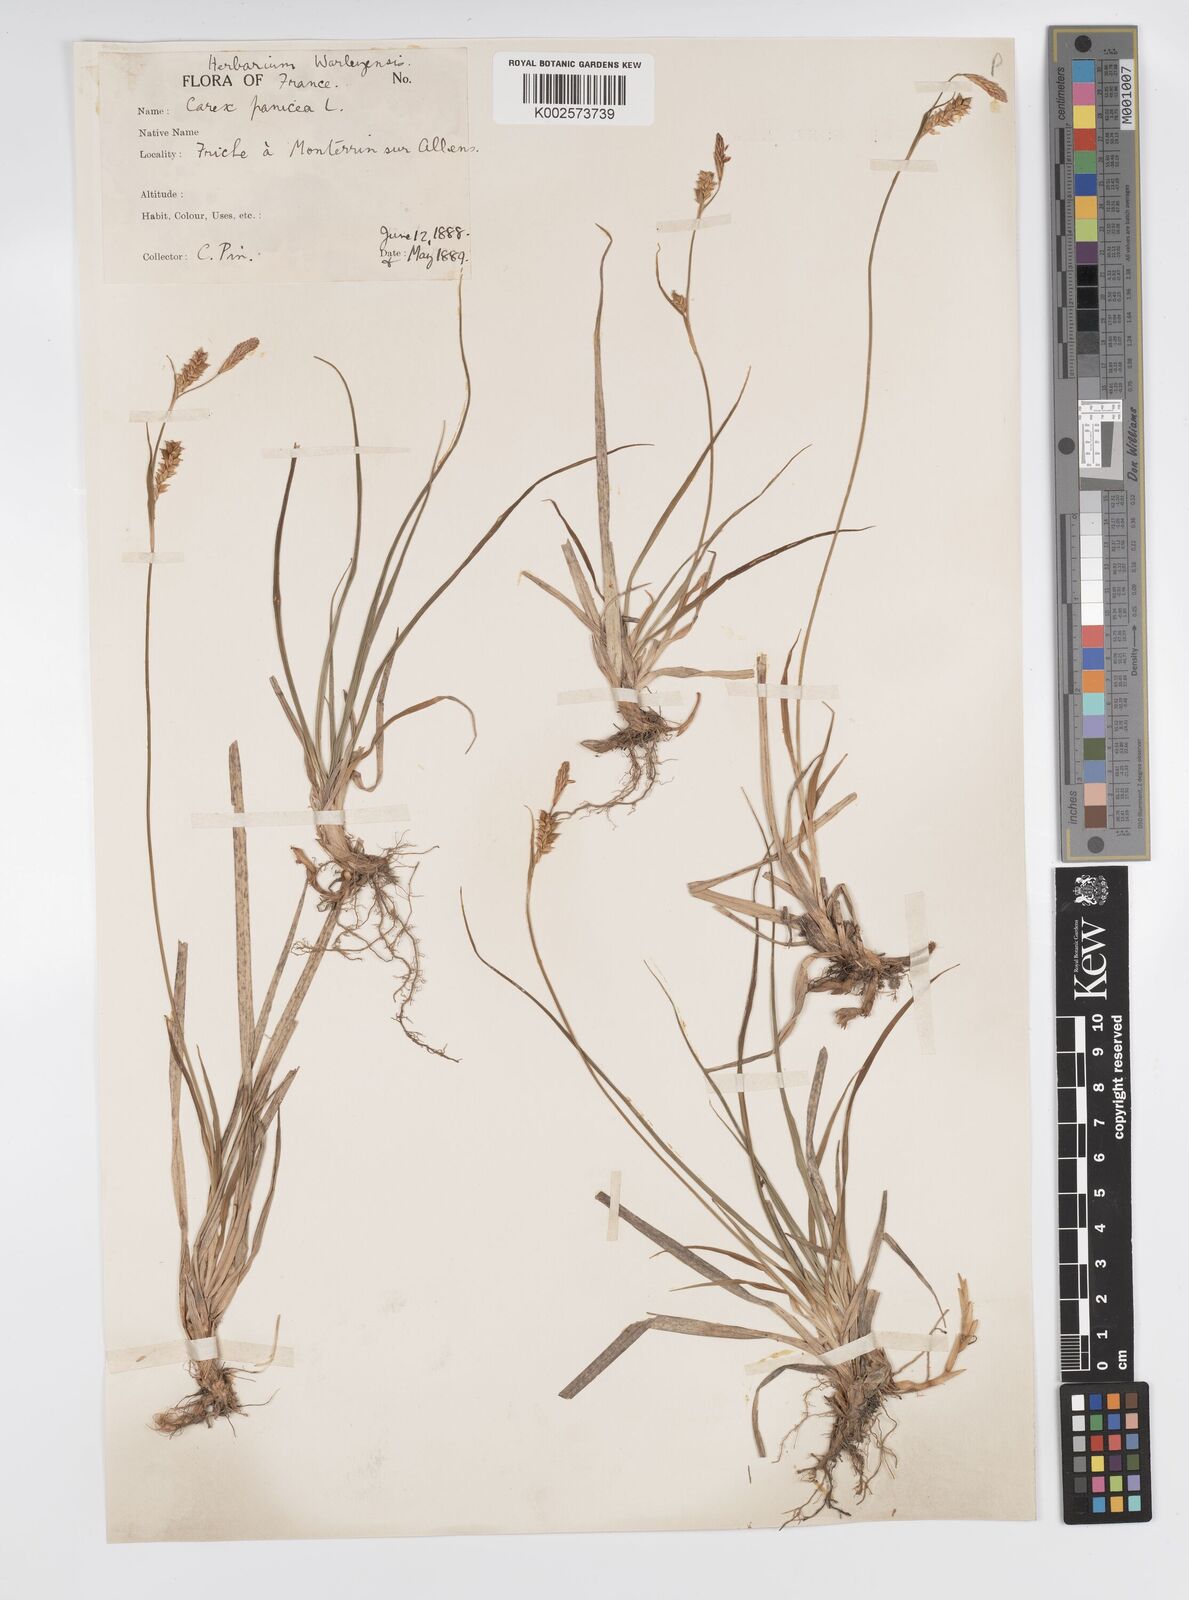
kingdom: Plantae
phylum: Tracheophyta
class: Liliopsida
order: Poales
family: Cyperaceae
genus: Carex
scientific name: Carex panicea
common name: Carnation sedge
